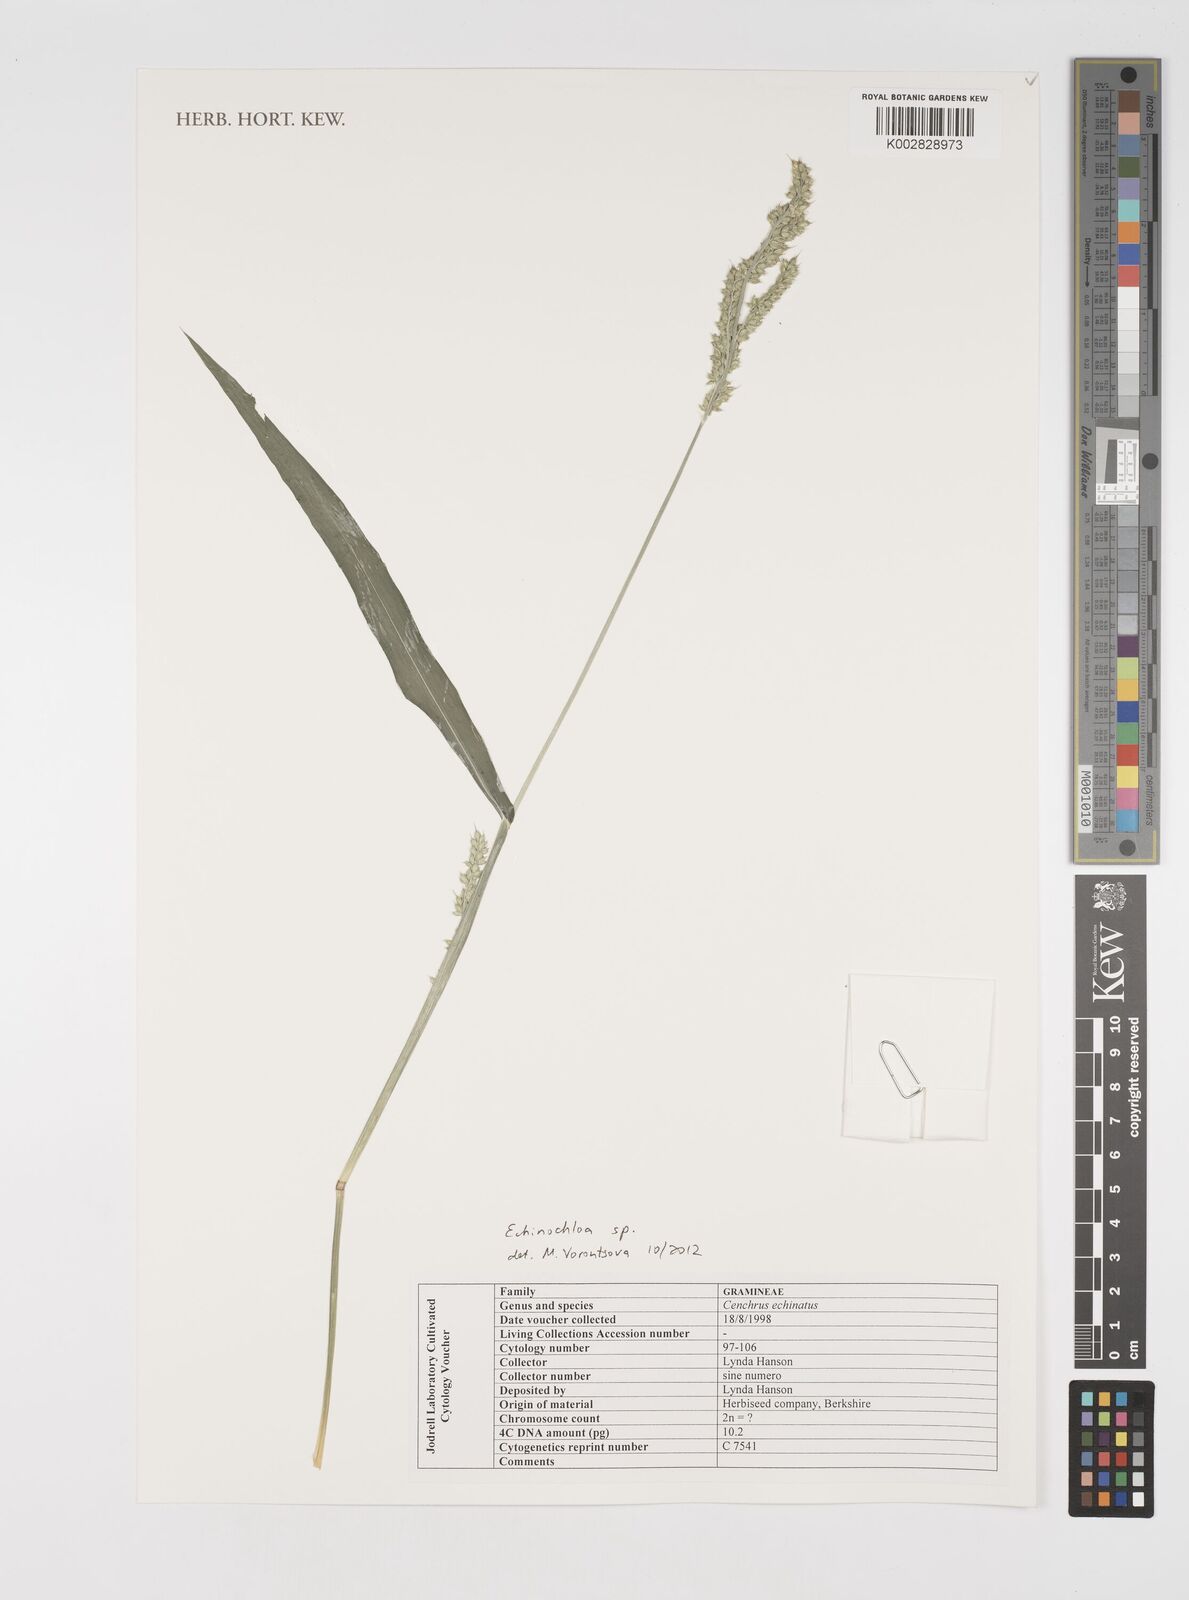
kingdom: Plantae
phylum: Tracheophyta
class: Liliopsida
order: Poales
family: Poaceae
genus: Echinochloa
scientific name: Echinochloa
